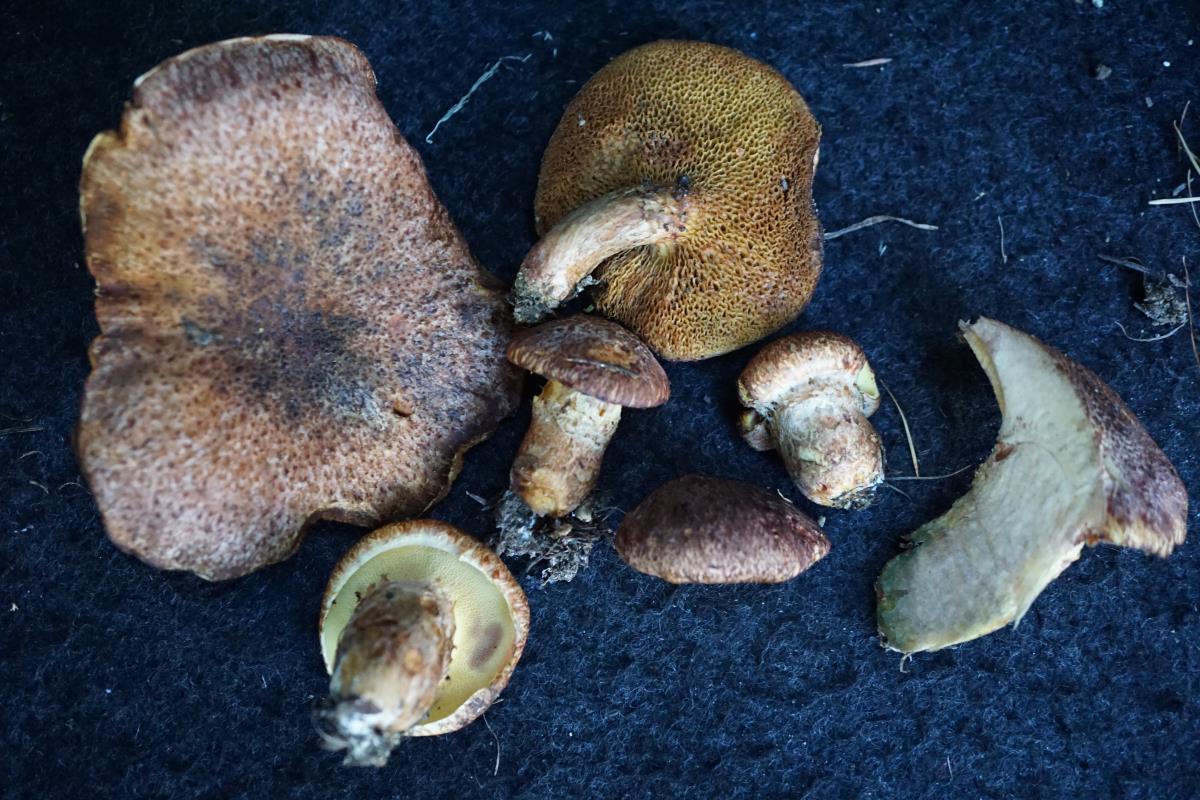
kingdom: Fungi
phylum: Basidiomycota
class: Agaricomycetes
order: Boletales
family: Suillaceae
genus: Suillus
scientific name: Suillus lakei
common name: Western painted suillus
